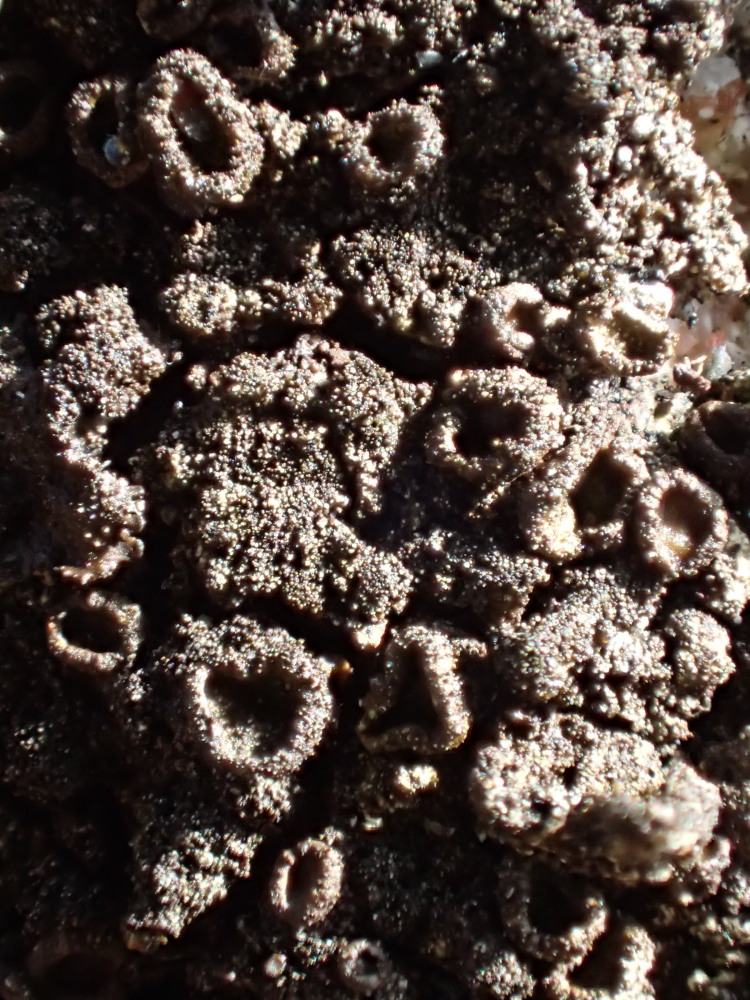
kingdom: Fungi
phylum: Ascomycota
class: Lecanoromycetes
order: Lecanorales
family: Parmeliaceae
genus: Melanelixia
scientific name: Melanelixia fuliginosa
